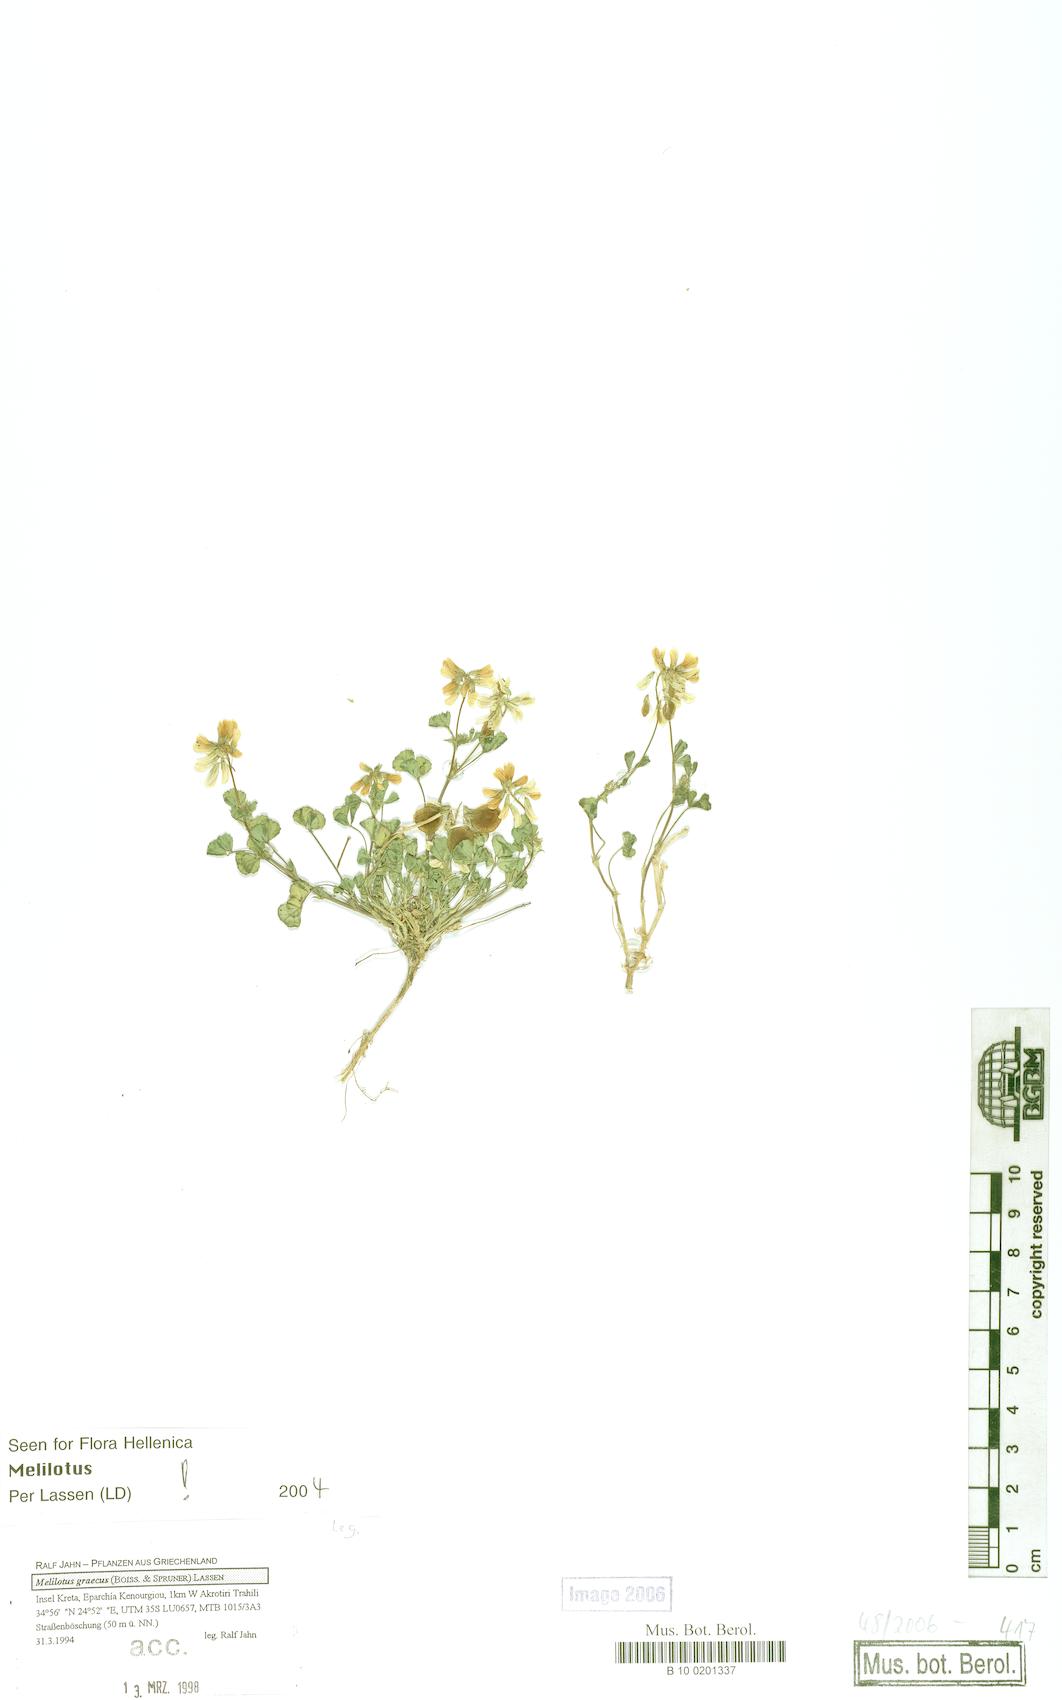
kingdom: Plantae
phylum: Tracheophyta
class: Magnoliopsida
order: Fabales
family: Fabaceae
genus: Trigonella
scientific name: Trigonella graeca
